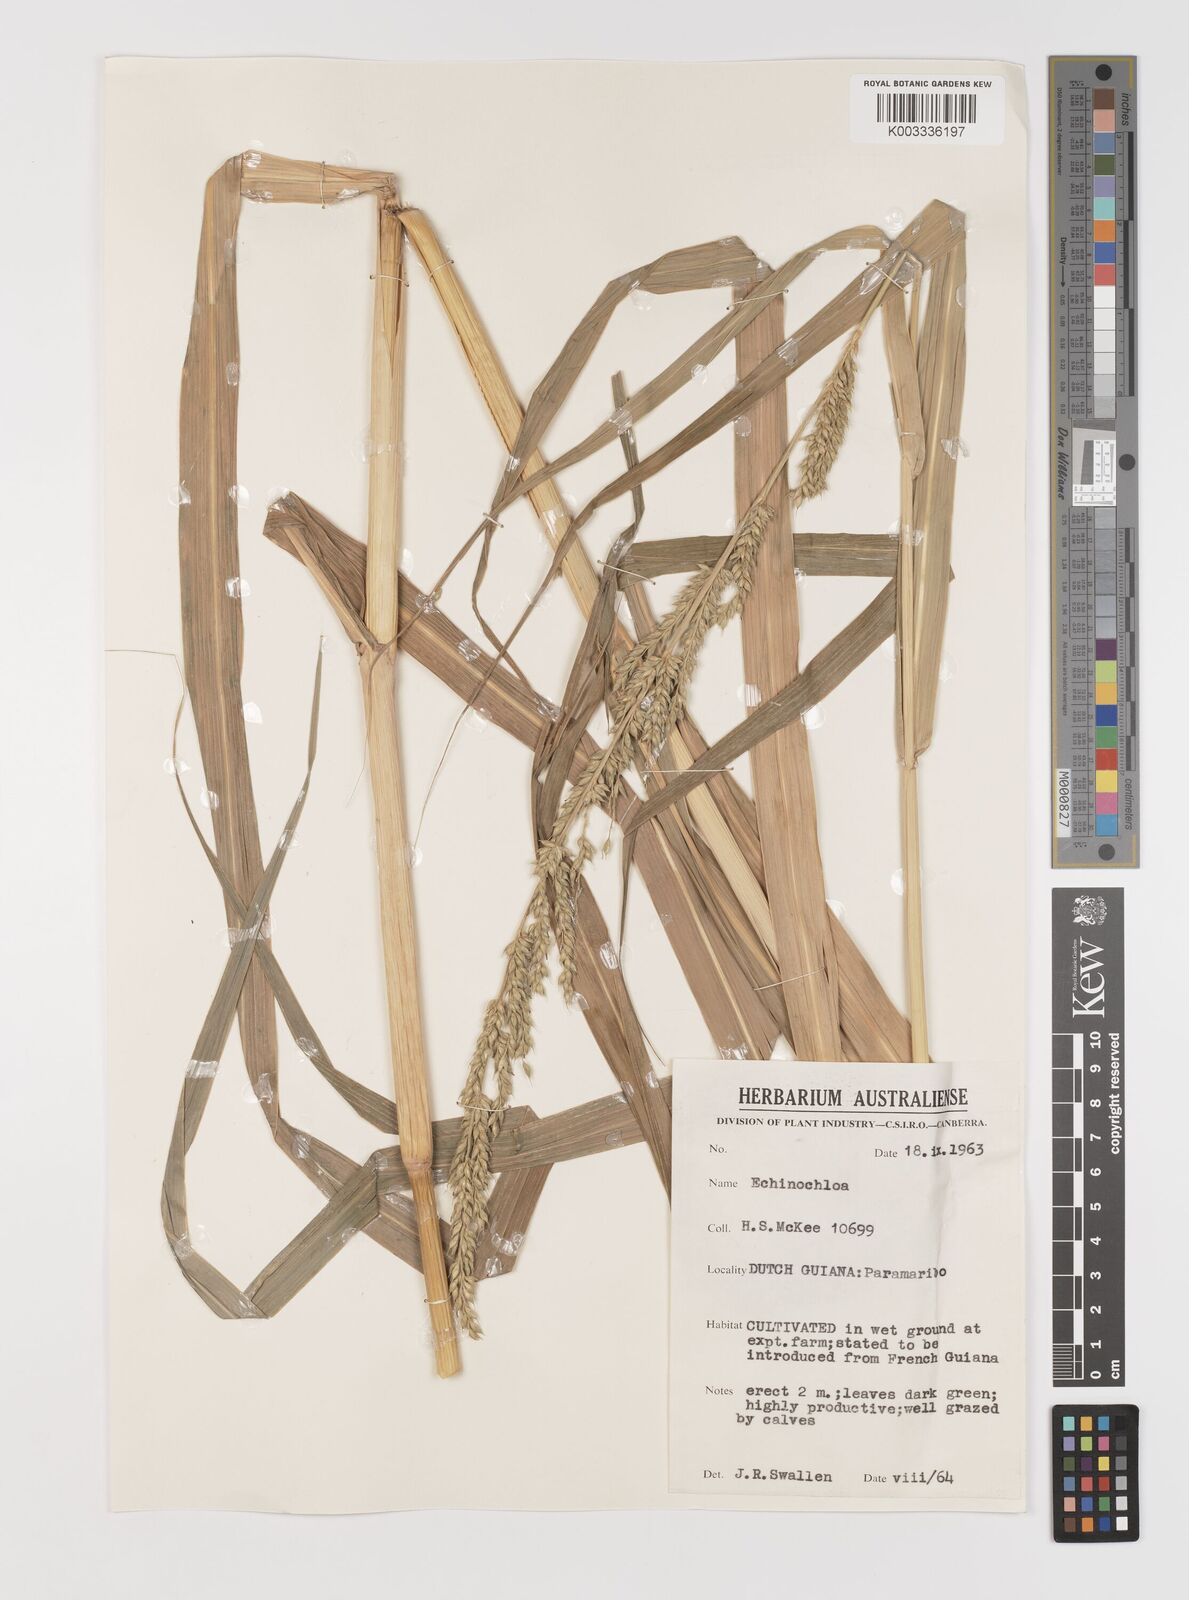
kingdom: Plantae
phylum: Tracheophyta
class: Liliopsida
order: Poales
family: Poaceae
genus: Echinochloa
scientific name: Echinochloa polystachya
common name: Creeping river grass
